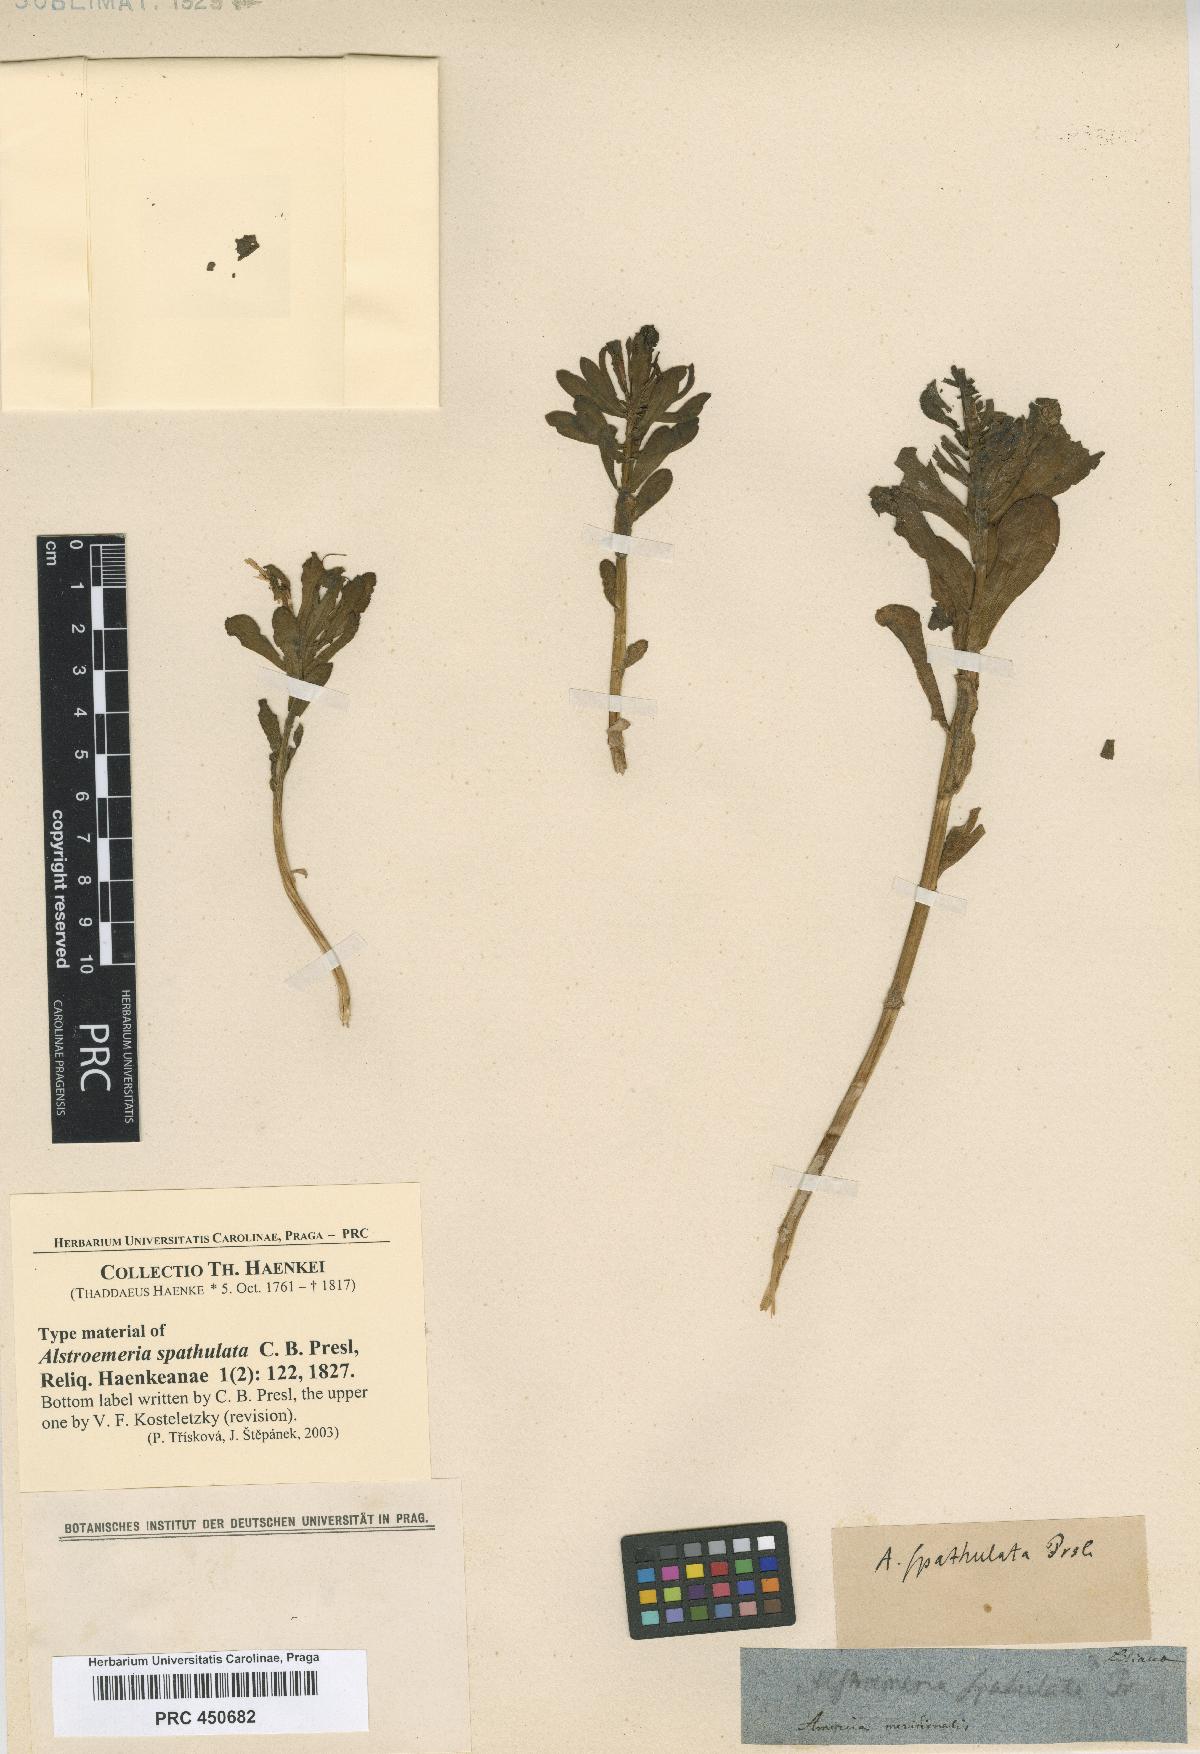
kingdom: Plantae
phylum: Tracheophyta
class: Liliopsida
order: Liliales
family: Alstroemeriaceae
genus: Alstroemeria
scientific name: Alstroemeria spathulata
